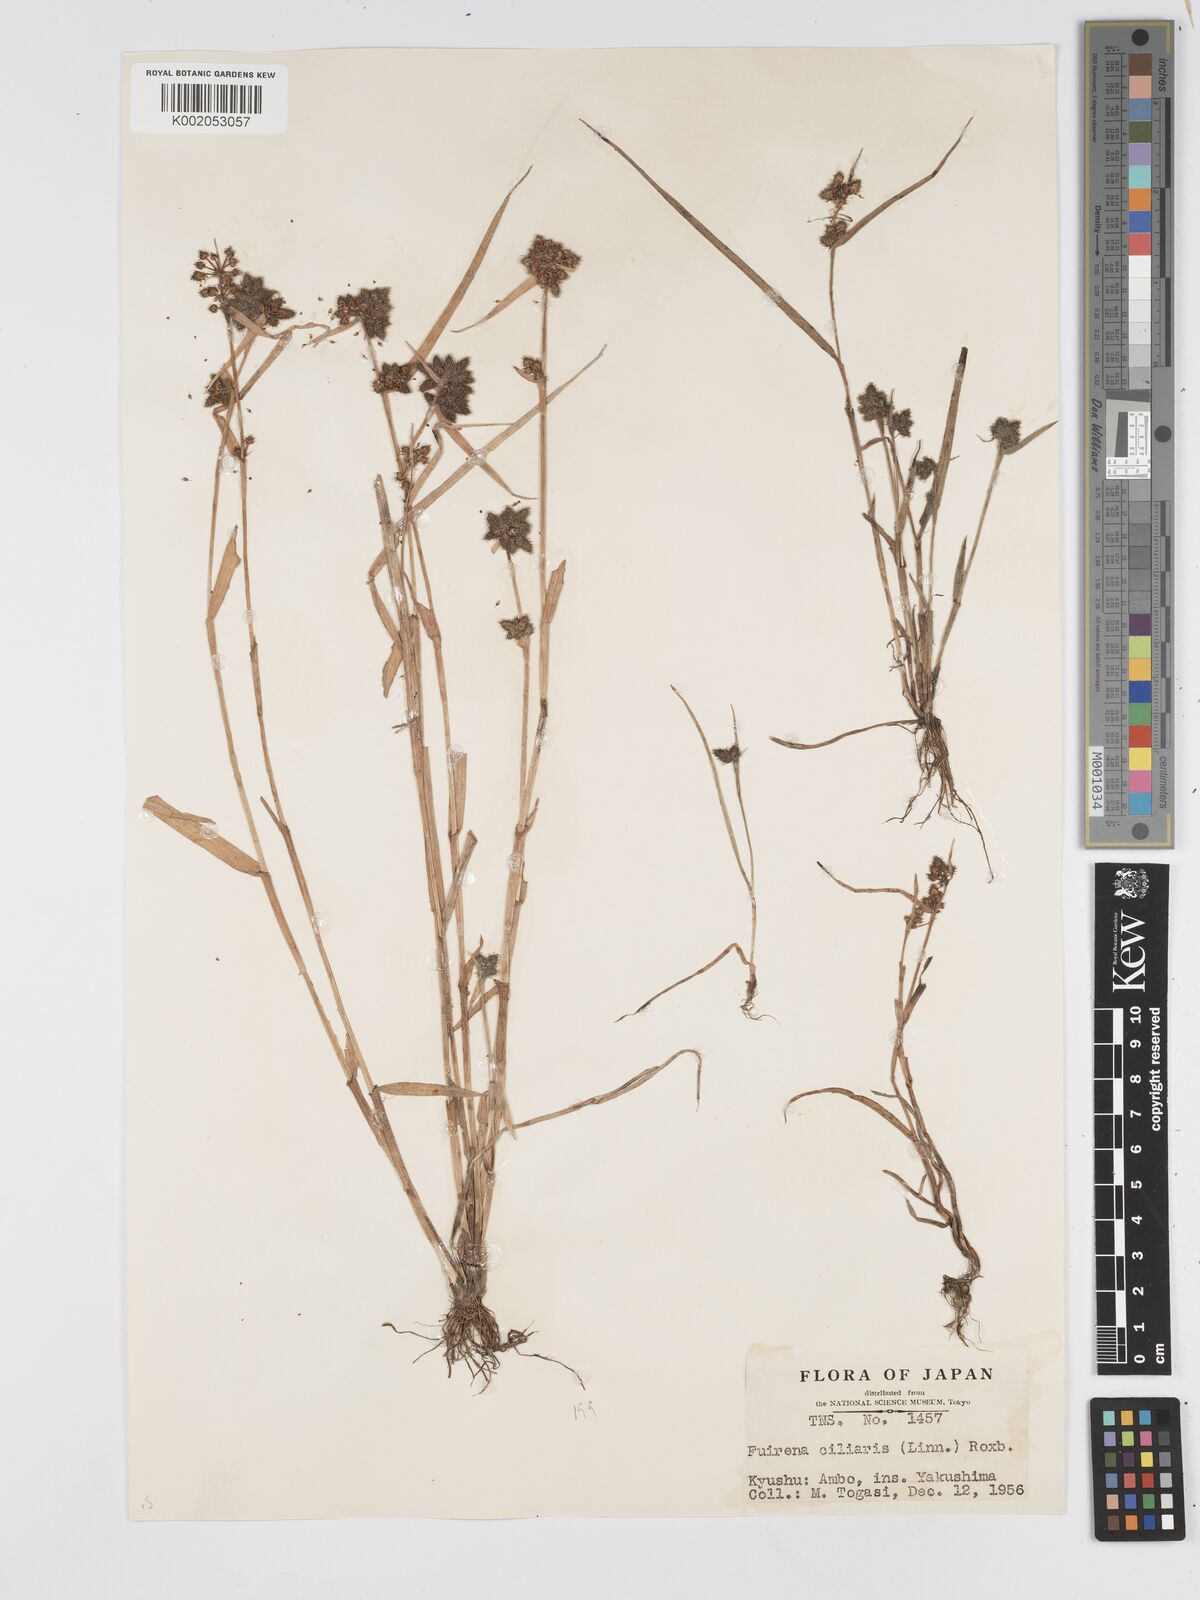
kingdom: Plantae
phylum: Tracheophyta
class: Liliopsida
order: Poales
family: Cyperaceae
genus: Fuirena
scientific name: Fuirena ciliaris
